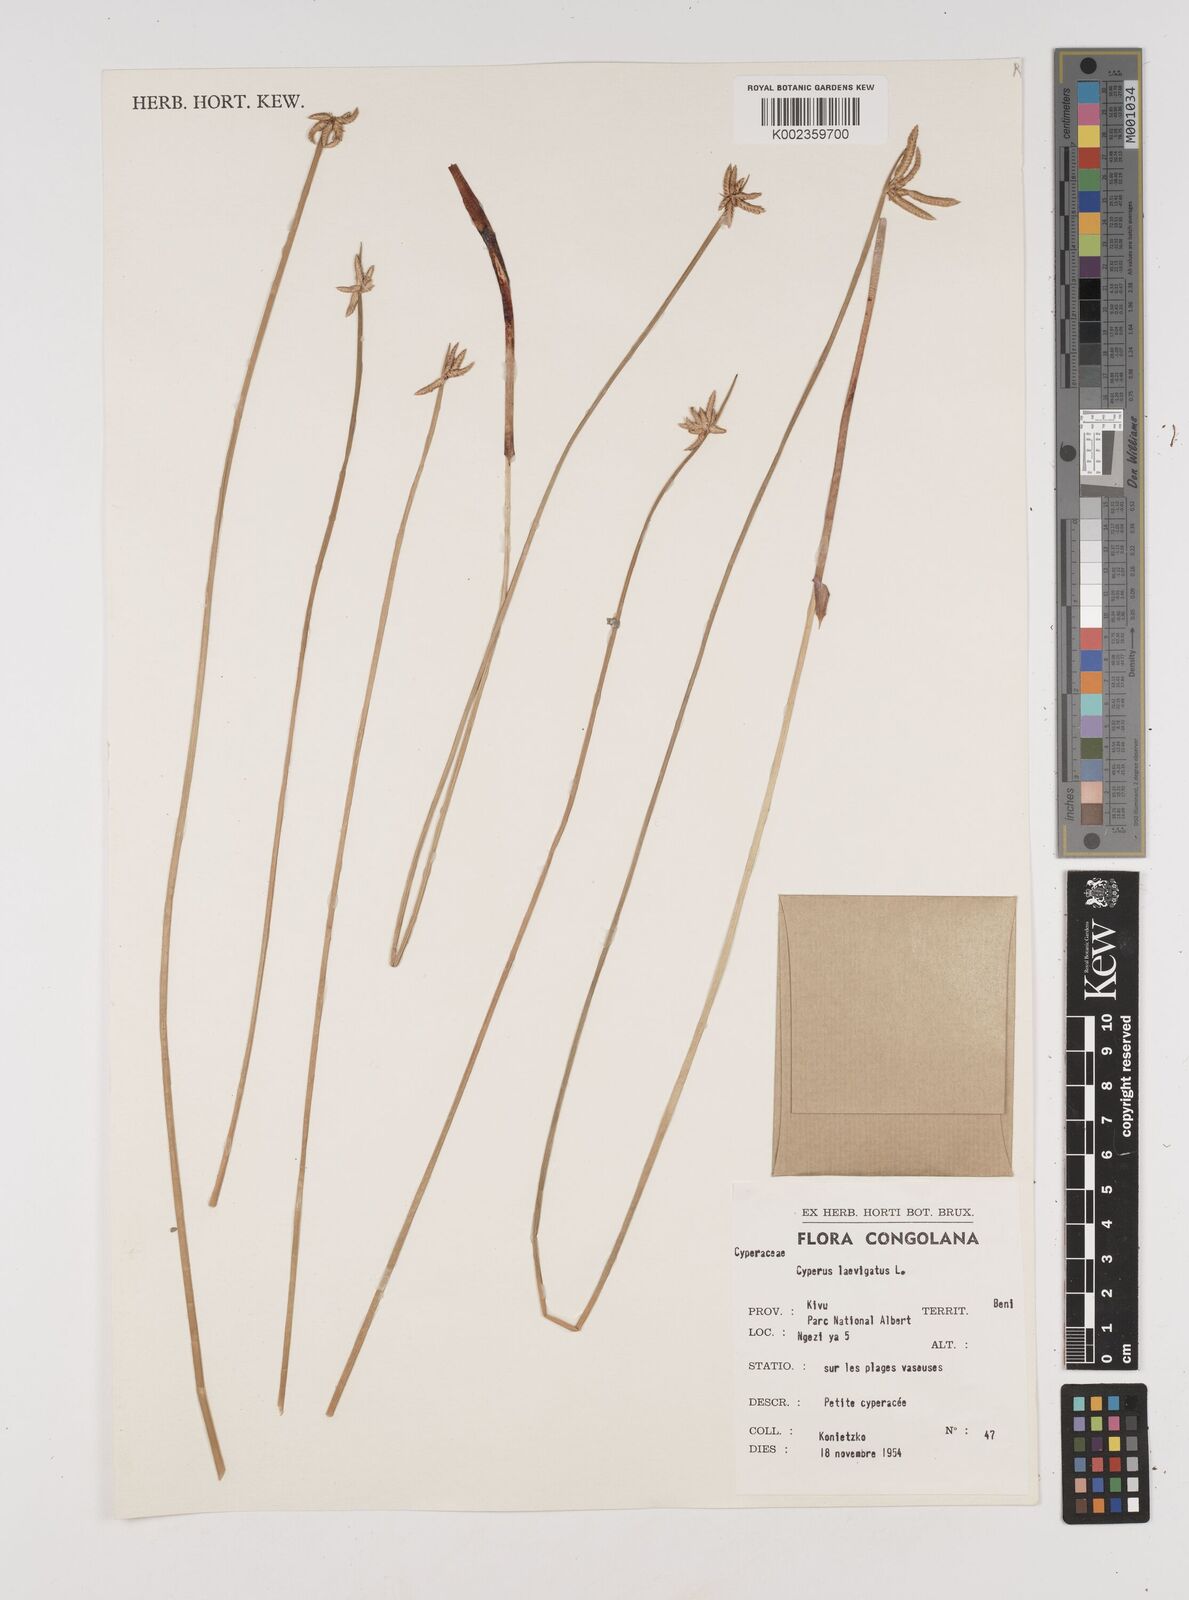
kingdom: Plantae
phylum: Tracheophyta
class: Liliopsida
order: Poales
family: Cyperaceae
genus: Cyperus
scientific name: Cyperus laevigatus
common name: Smooth flat sedge
